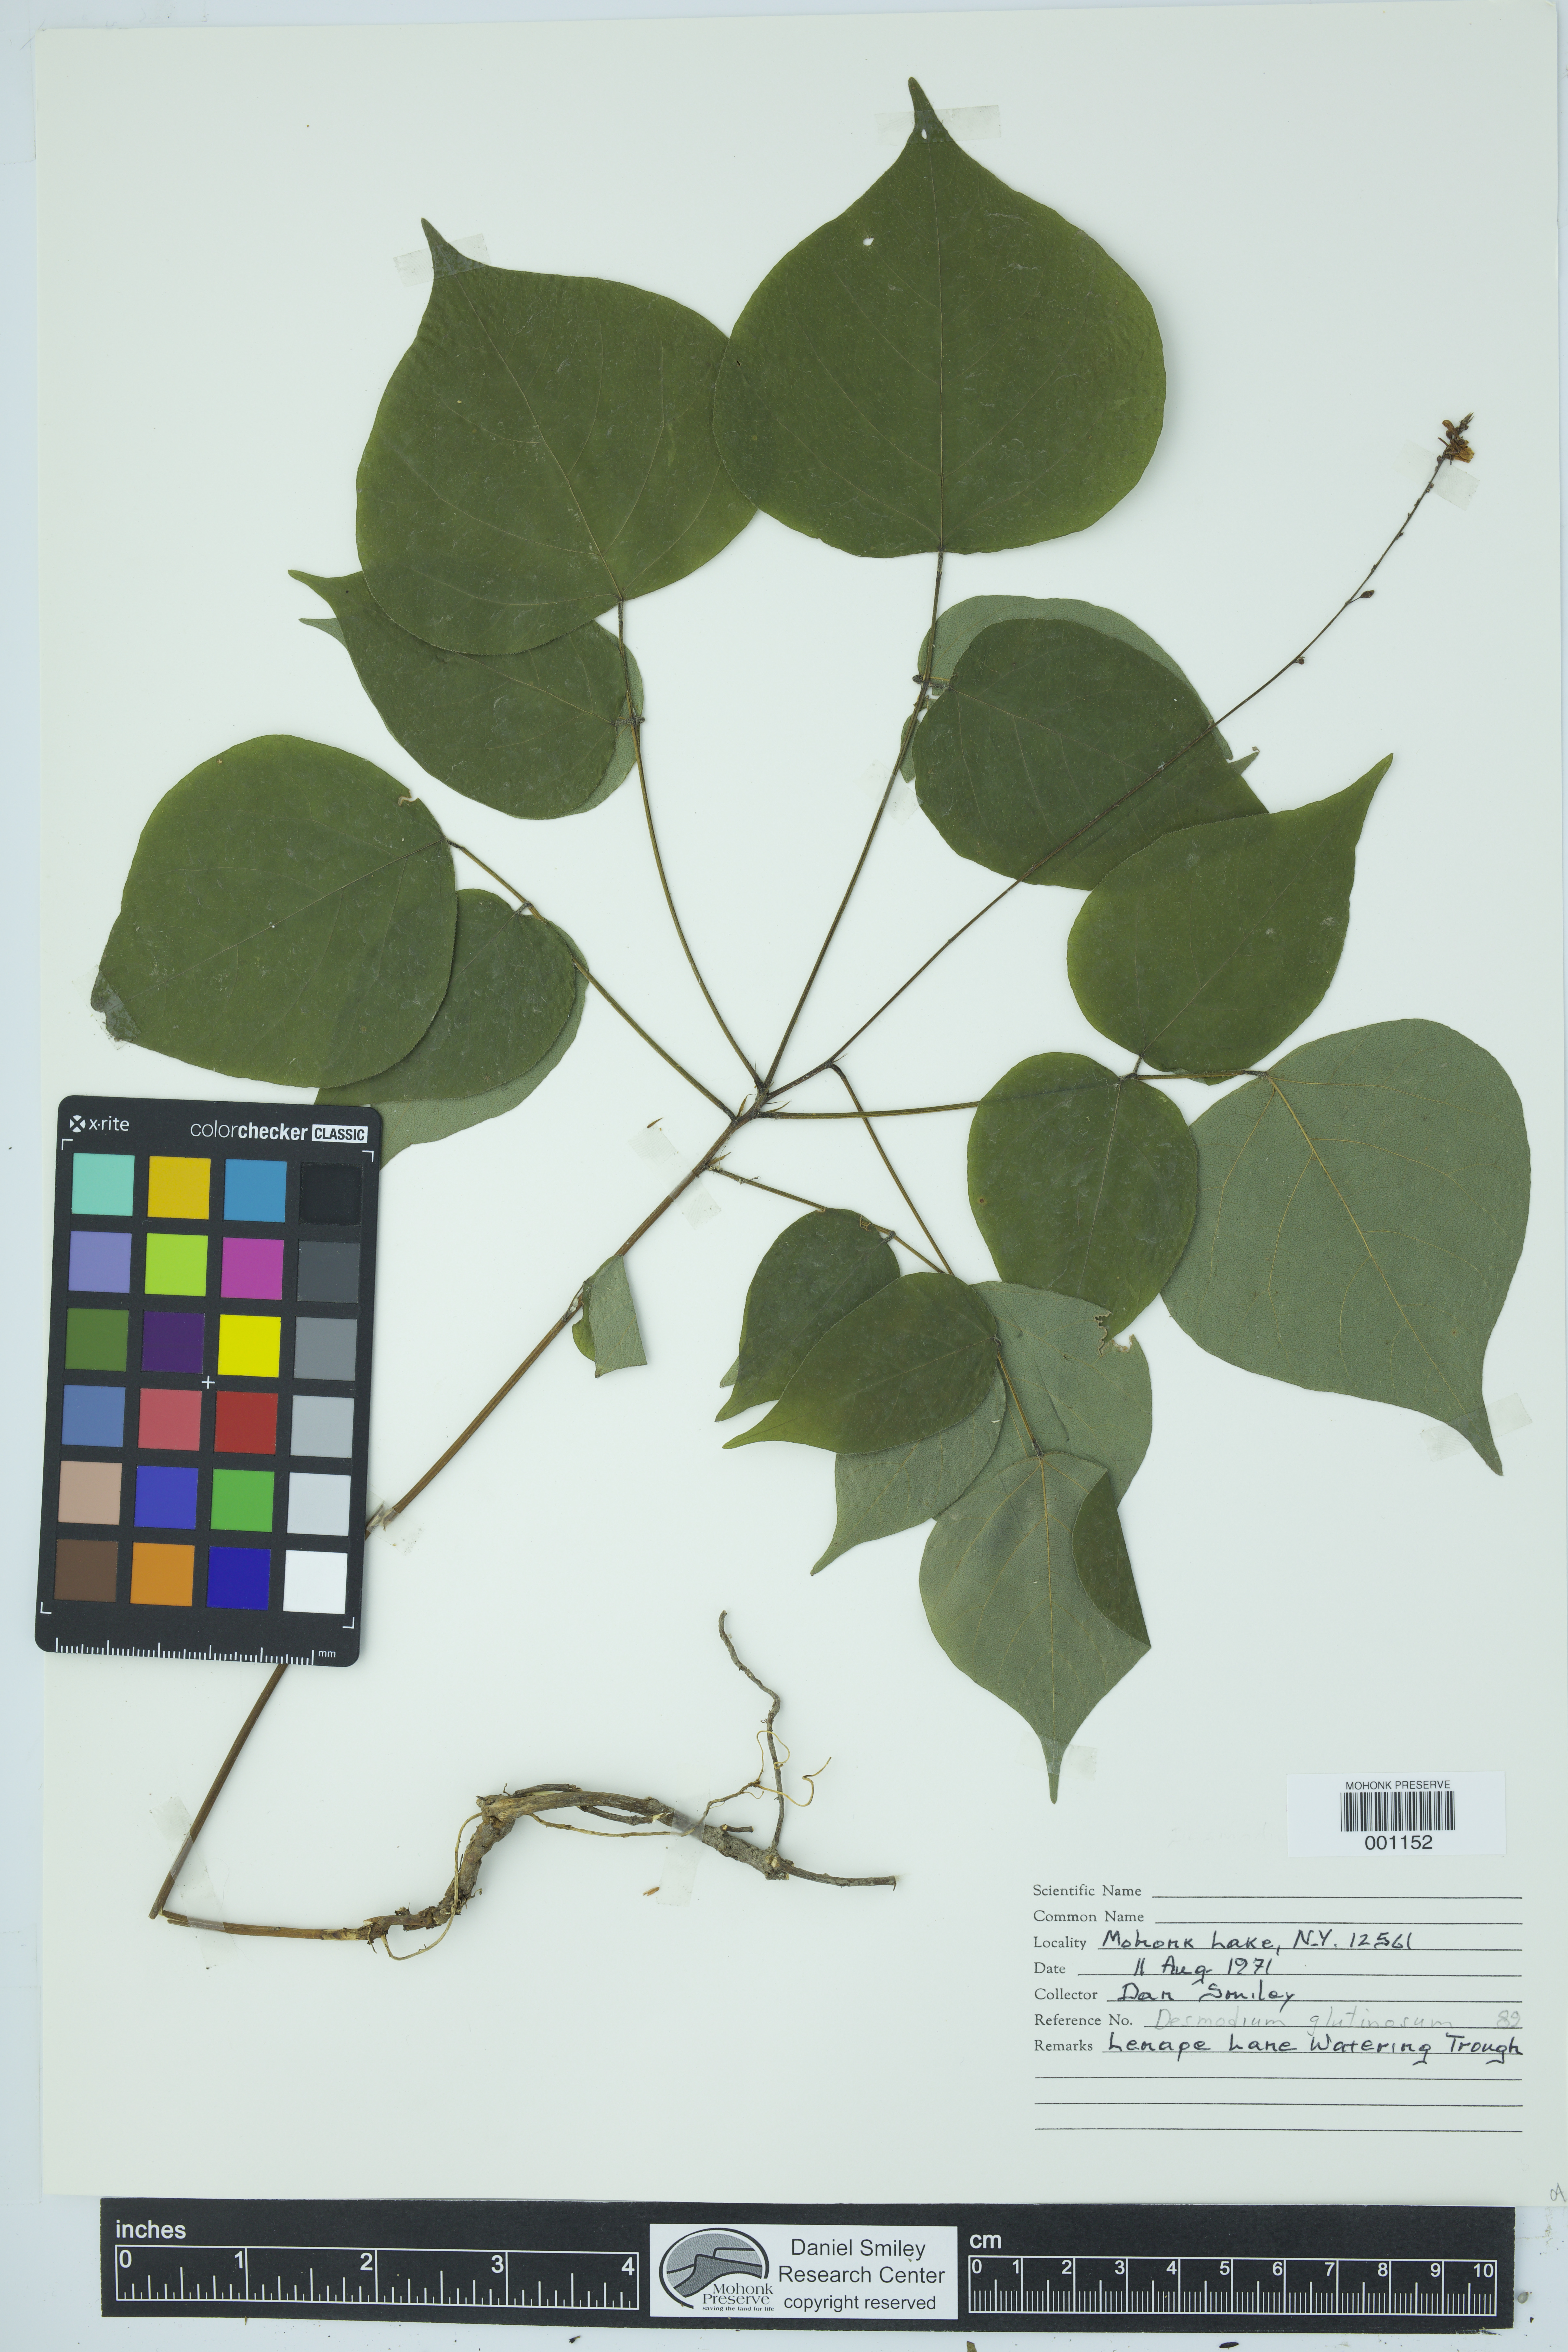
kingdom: Plantae
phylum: Tracheophyta
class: Magnoliopsida
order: Fabales
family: Fabaceae
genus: Hylodesmum
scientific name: Hylodesmum glutinosum
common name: Clustered-leaved tick-trefoil
